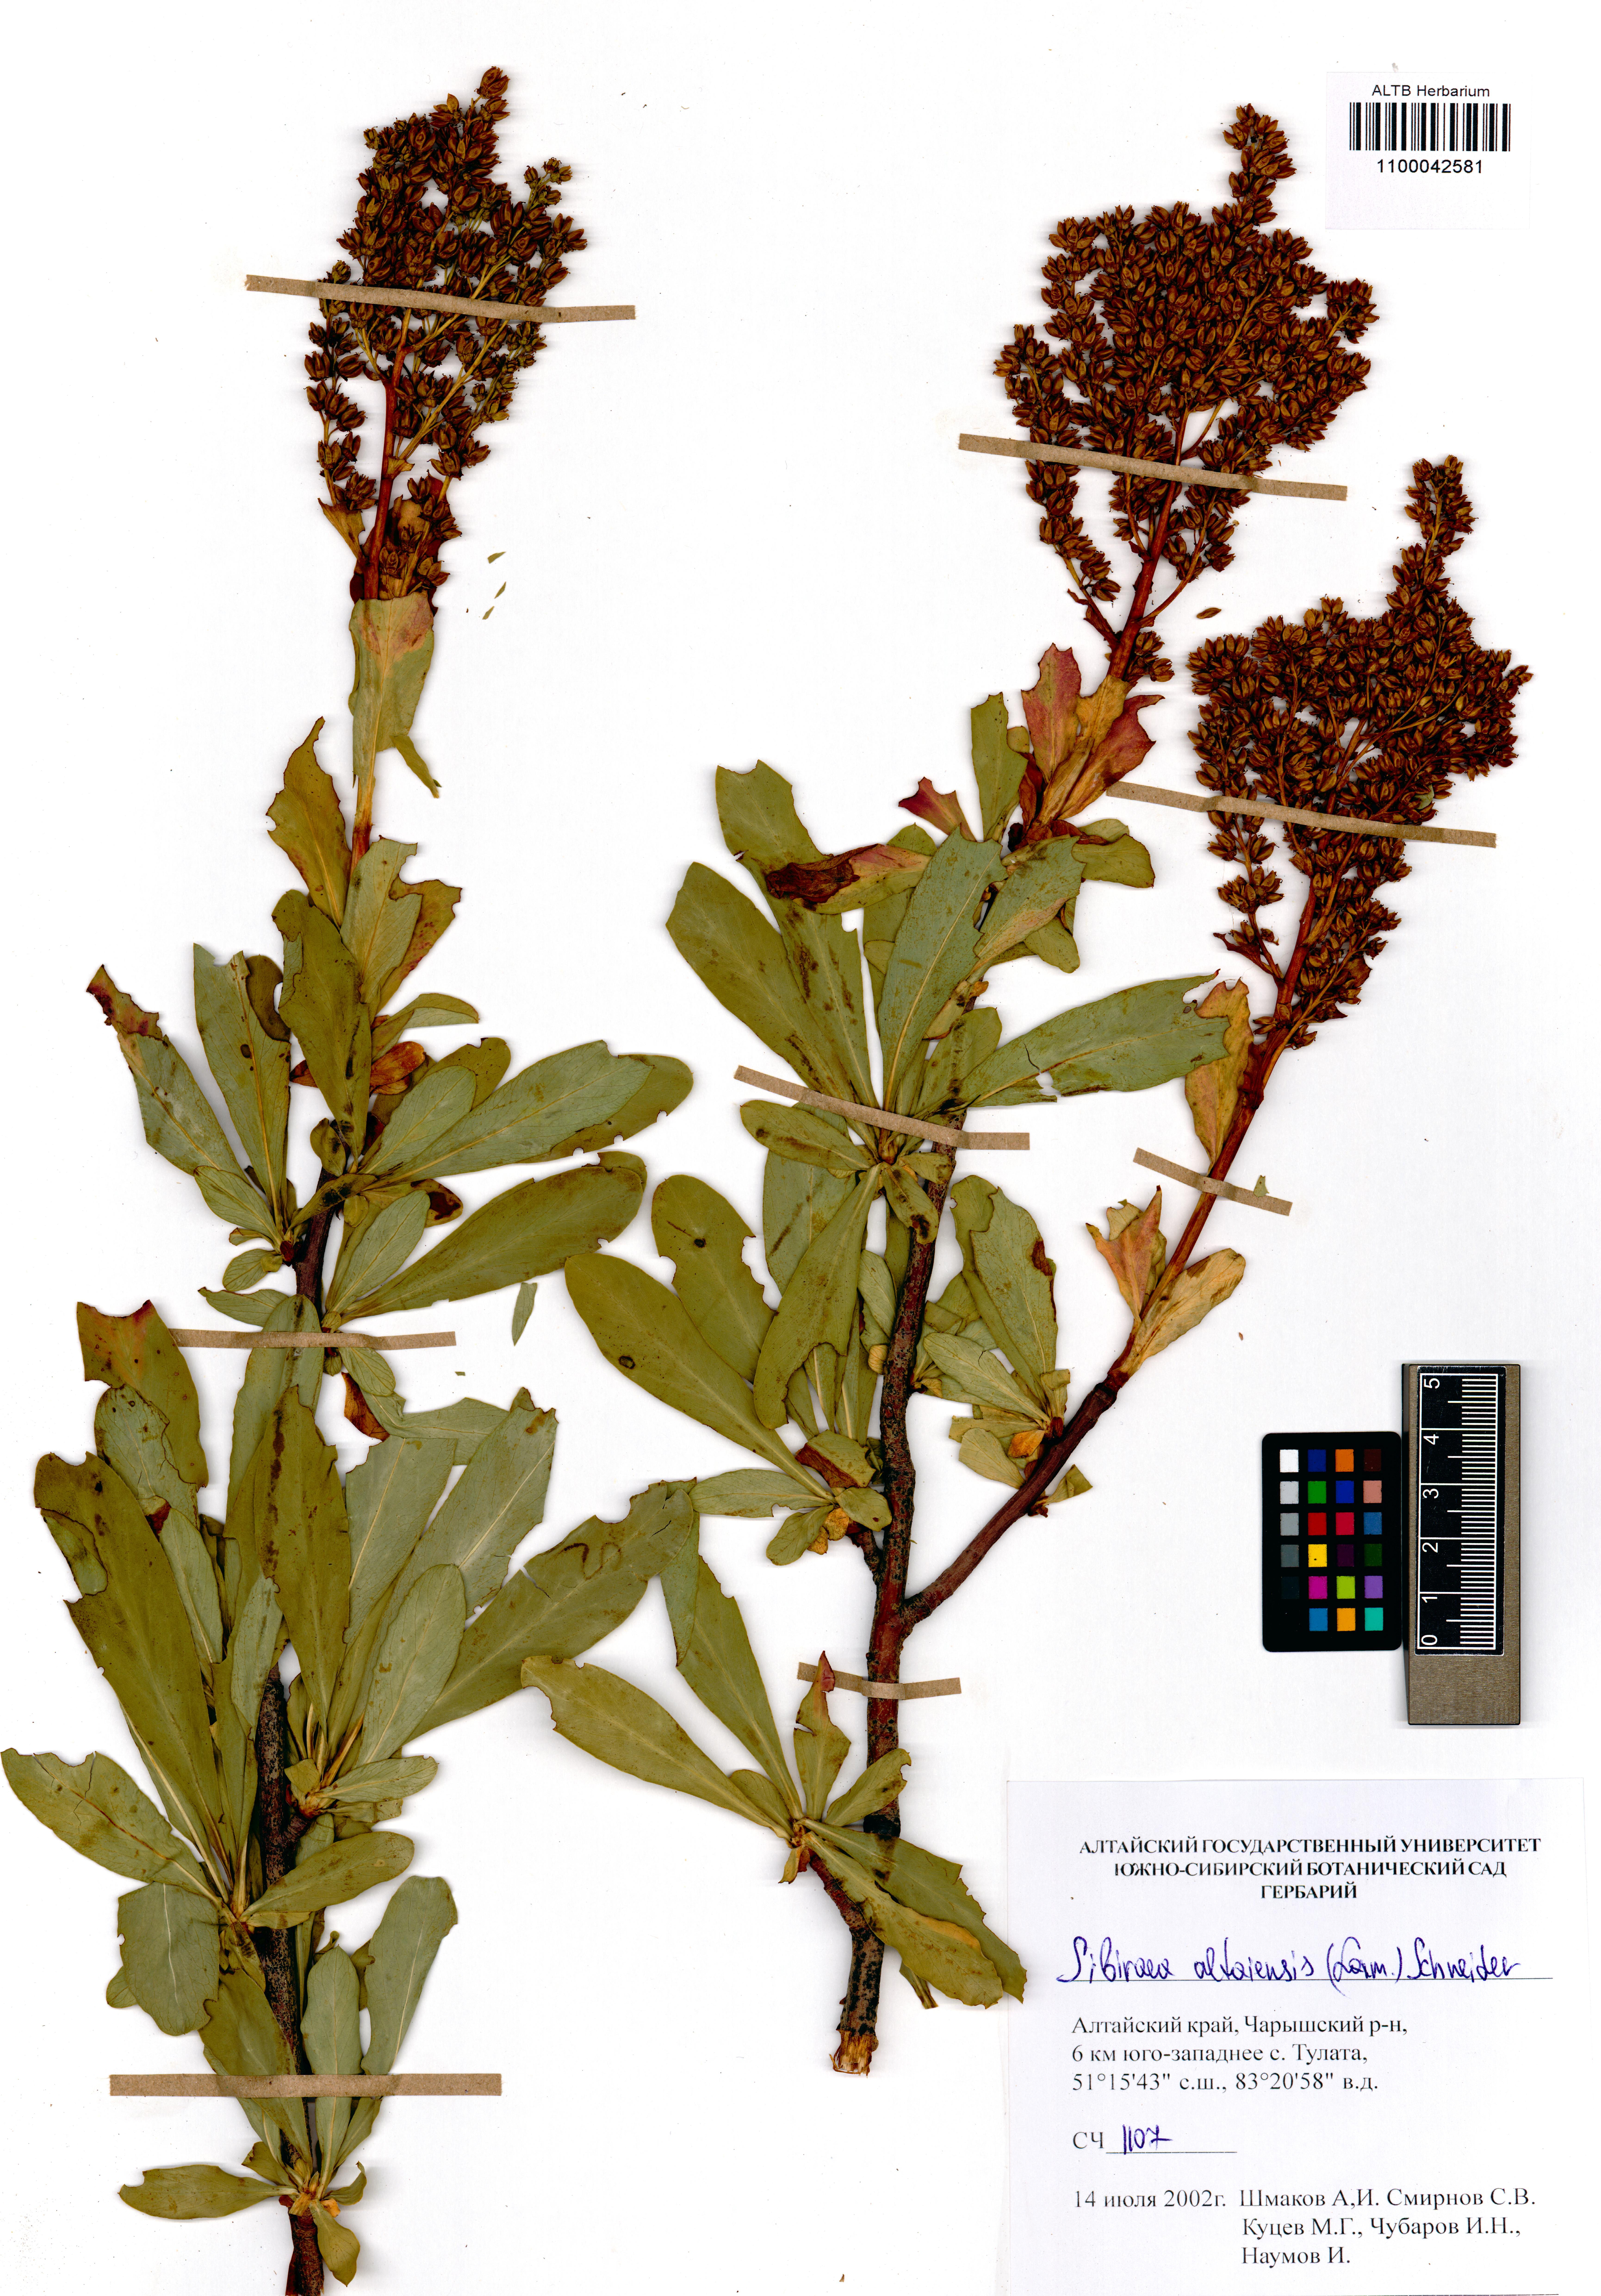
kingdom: Plantae
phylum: Tracheophyta
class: Magnoliopsida
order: Rosales
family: Rosaceae
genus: Sibiraea
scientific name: Sibiraea laevigata
